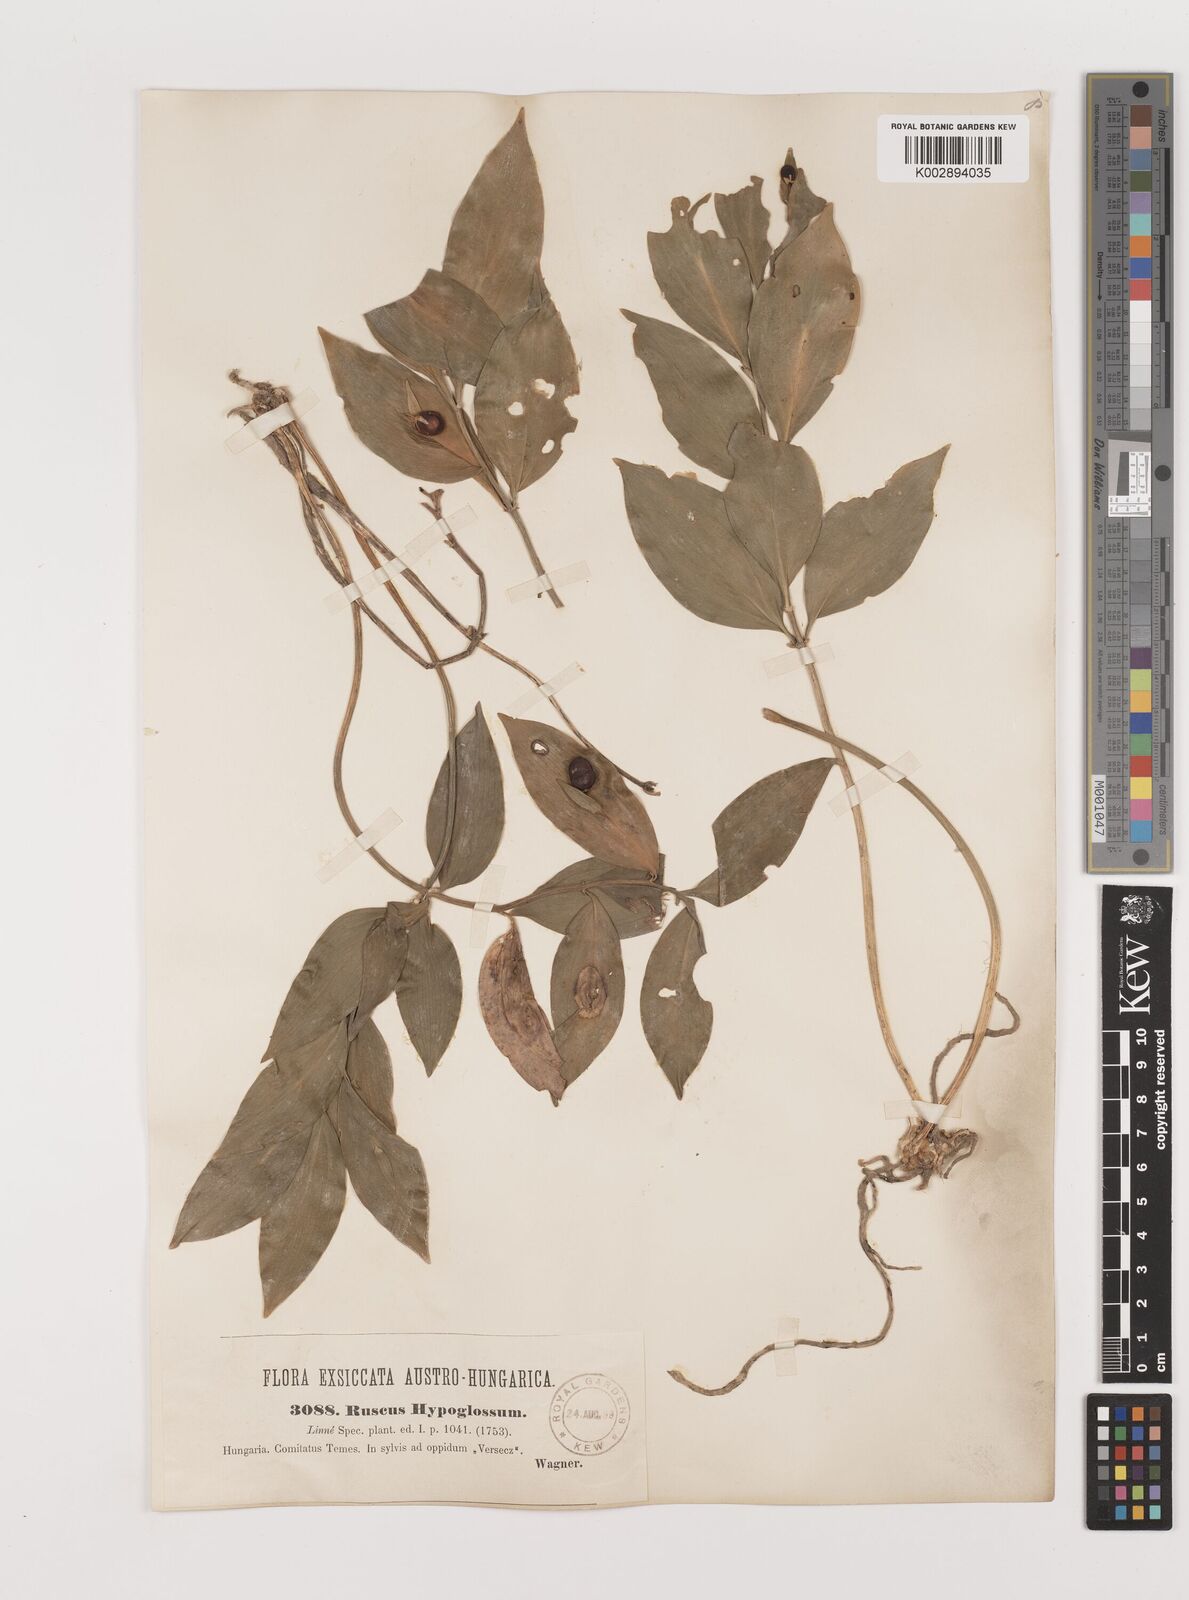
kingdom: Plantae
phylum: Tracheophyta
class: Liliopsida
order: Asparagales
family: Asparagaceae
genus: Ruscus
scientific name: Ruscus hypoglossum
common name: Spineless butcher's-broom
